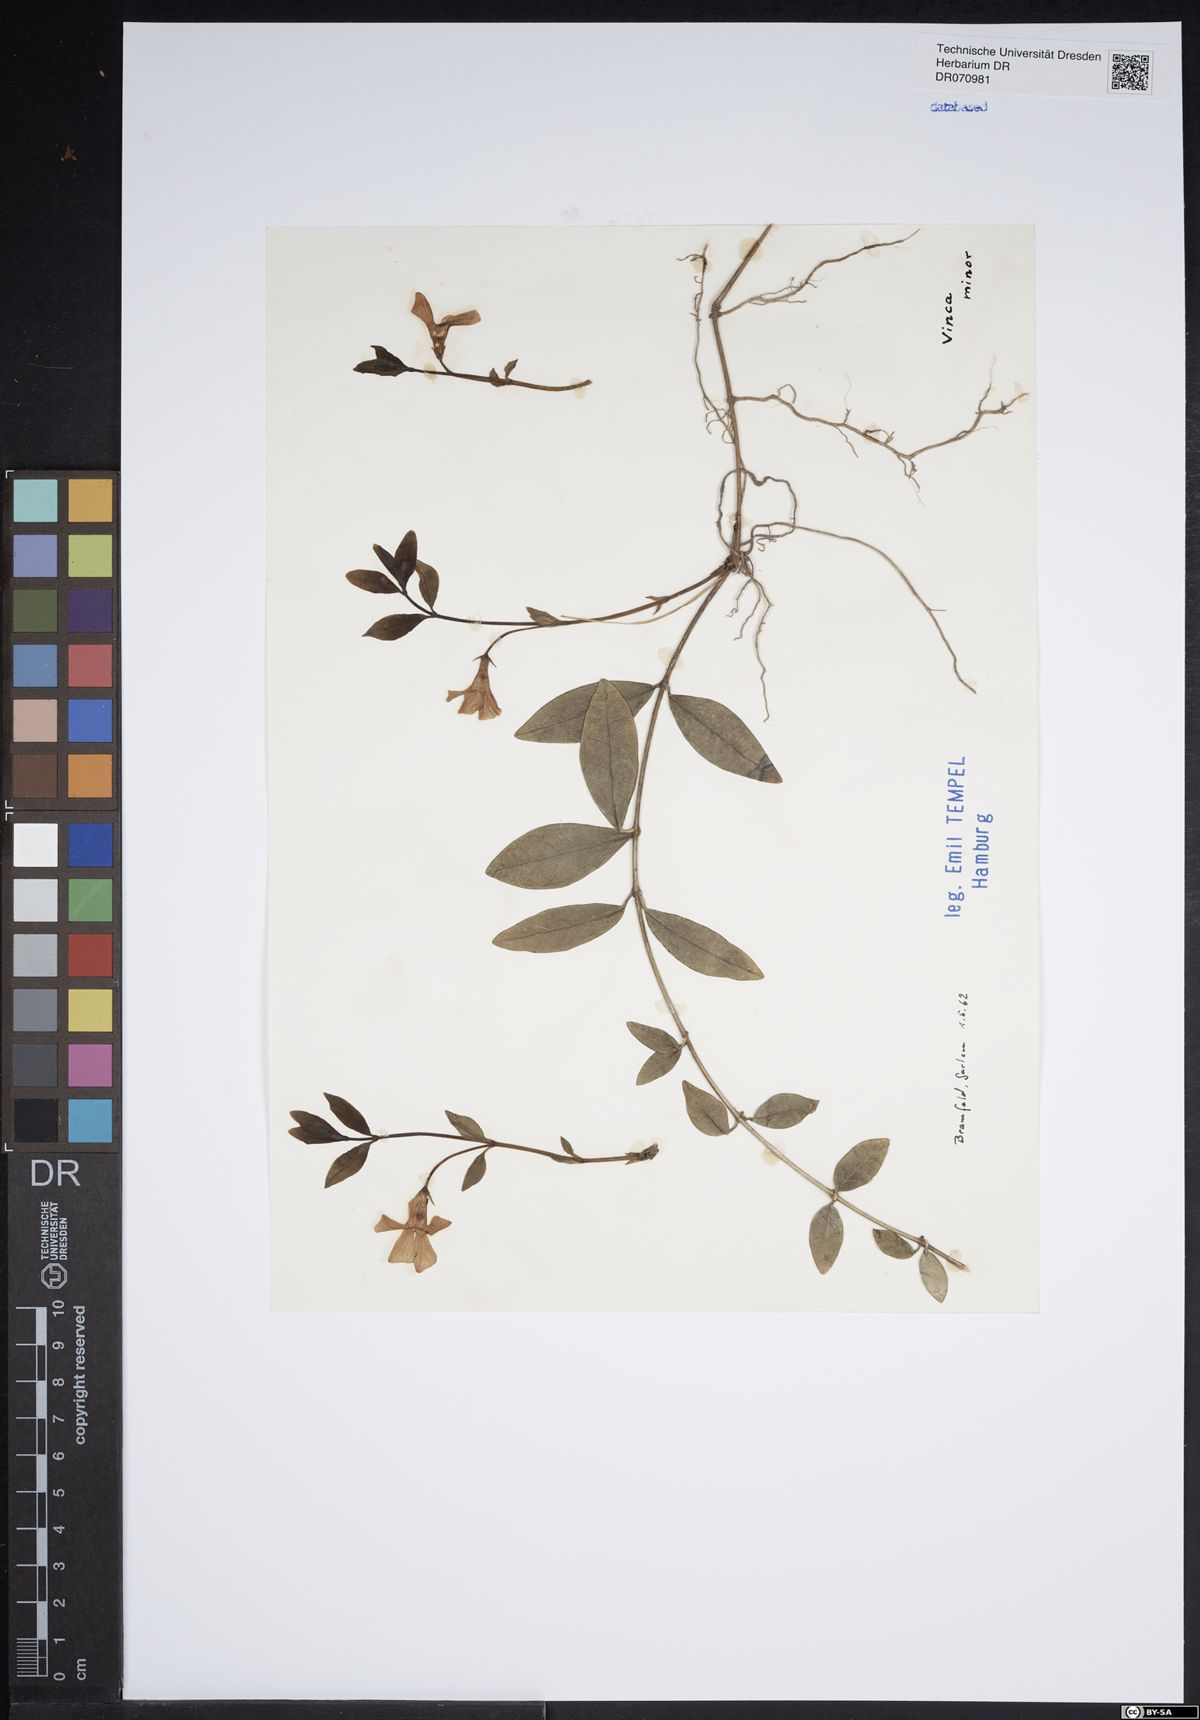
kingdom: Plantae
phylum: Tracheophyta
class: Magnoliopsida
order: Gentianales
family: Apocynaceae
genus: Vinca
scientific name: Vinca minor
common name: Lesser periwinkle
